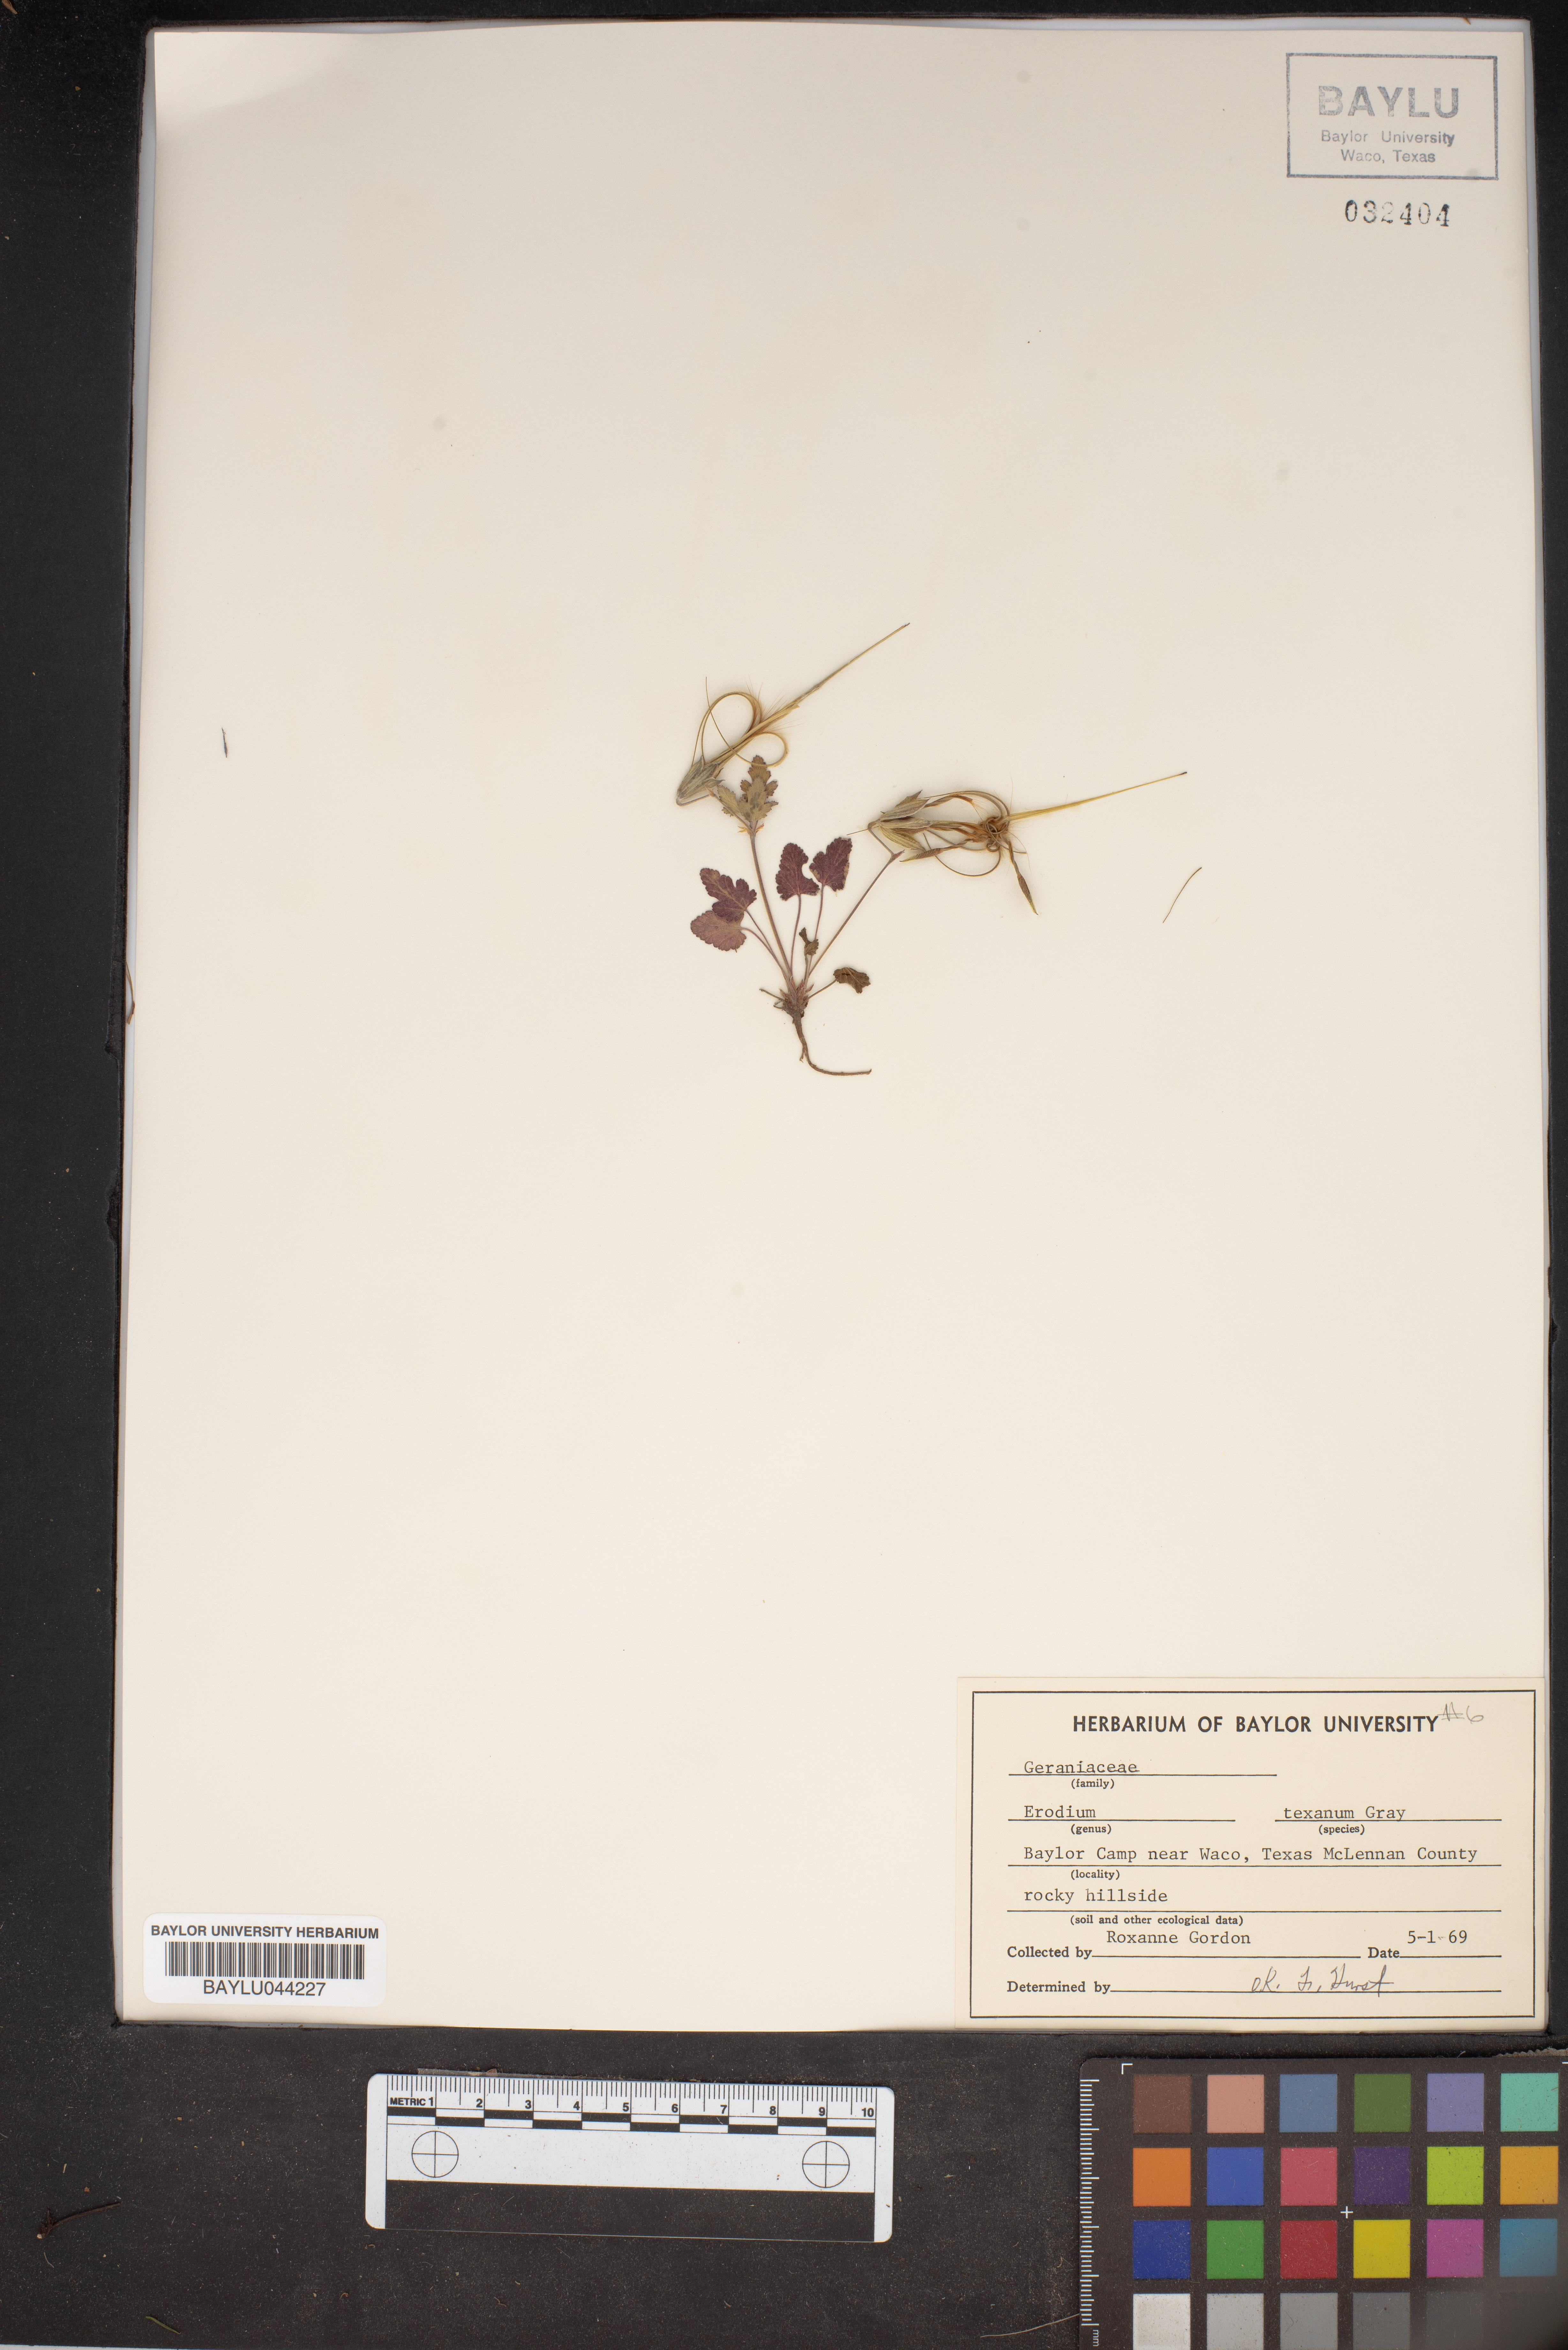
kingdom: Plantae
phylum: Tracheophyta
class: Magnoliopsida
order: Geraniales
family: Geraniaceae
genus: Erodium
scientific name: Erodium texanum
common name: Texas stork's-bill
